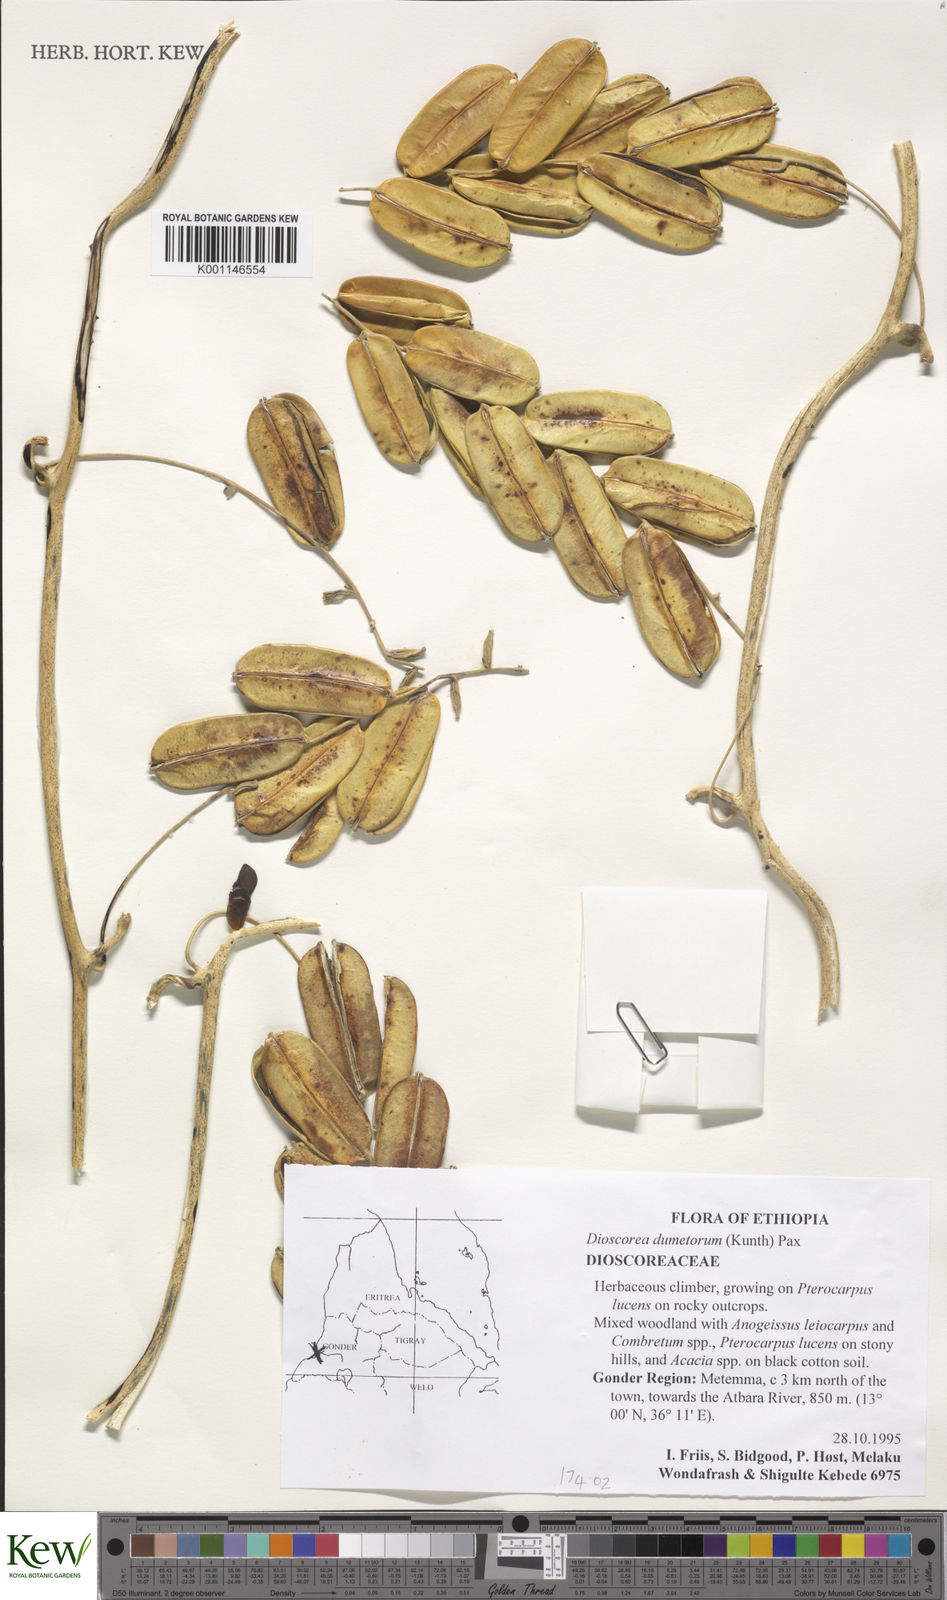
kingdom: Plantae
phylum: Tracheophyta
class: Liliopsida
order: Dioscoreales
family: Dioscoreaceae
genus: Dioscorea
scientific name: Dioscorea dumetorum
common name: African bitter yam
